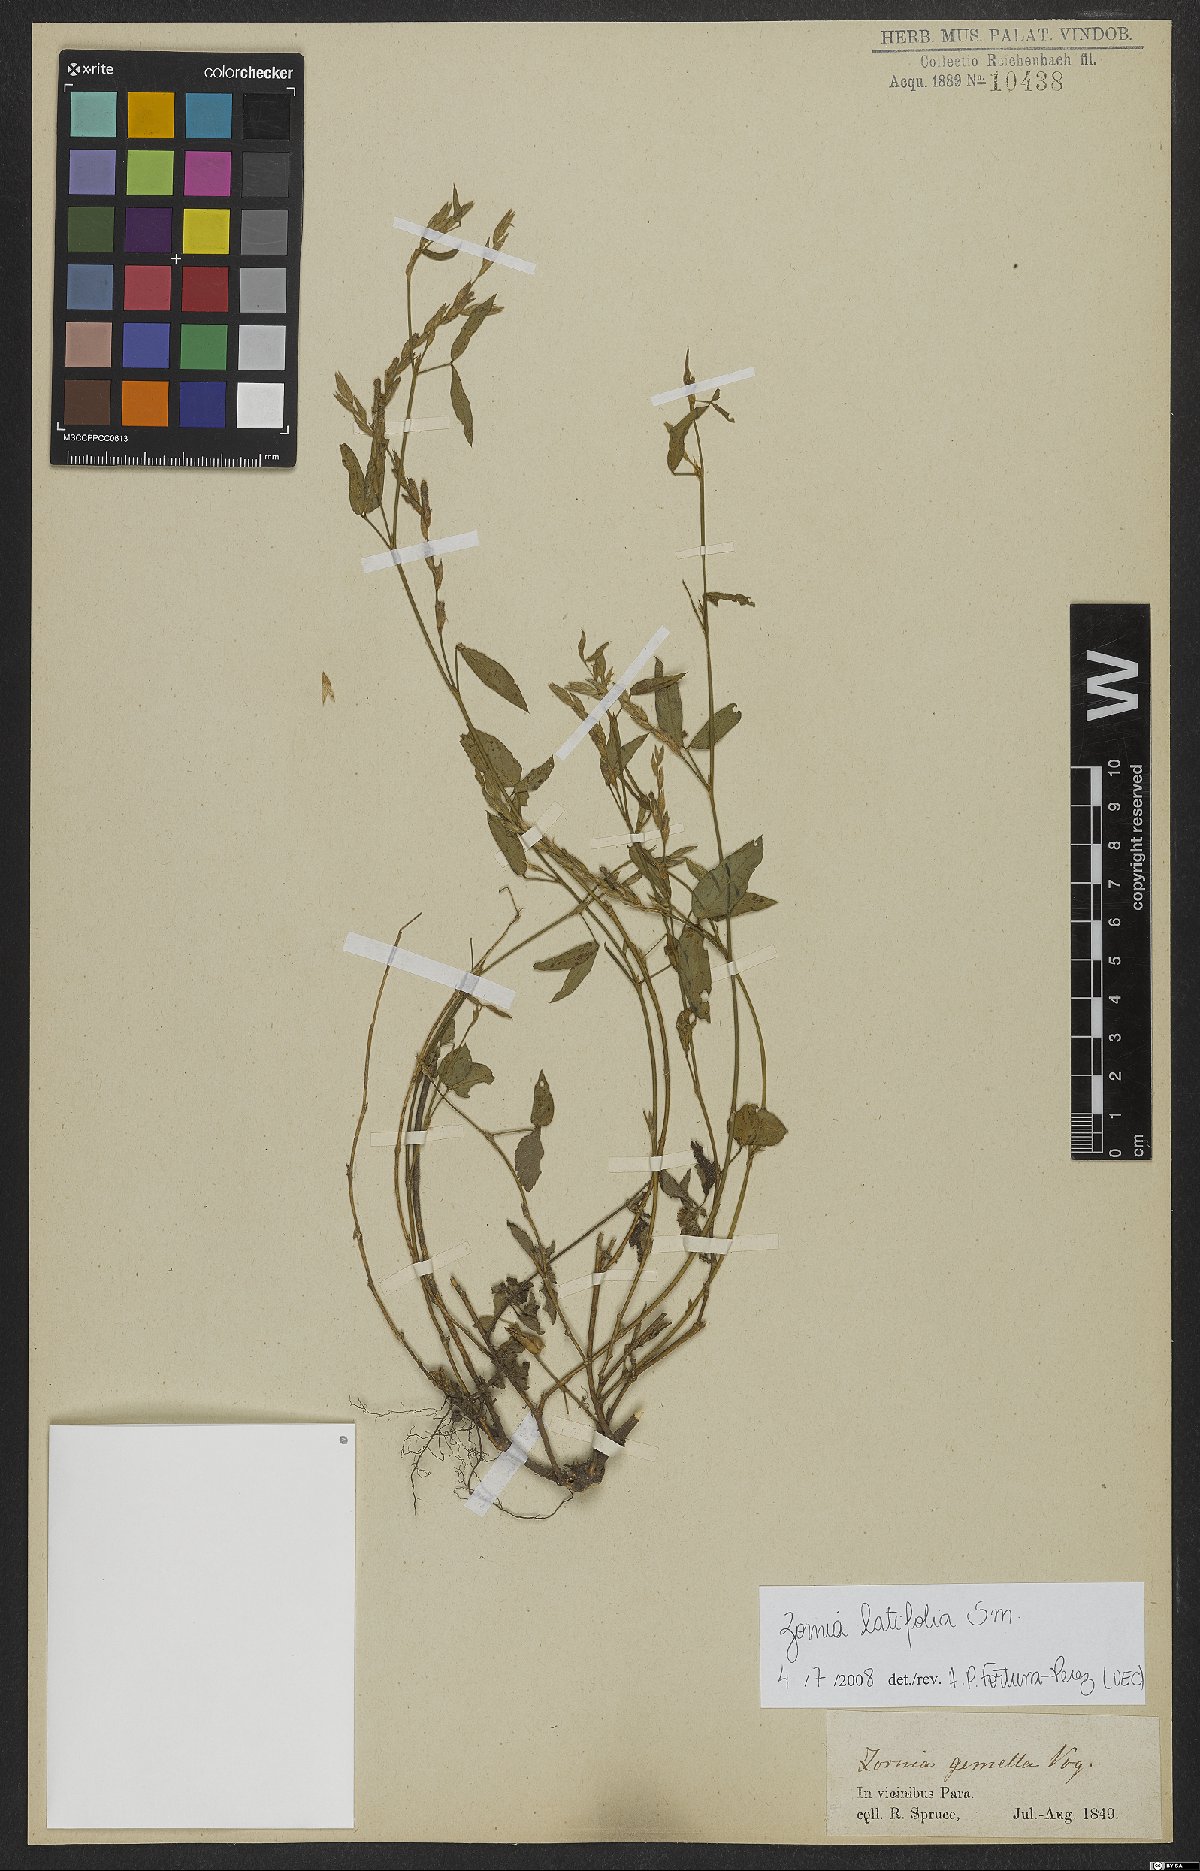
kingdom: Plantae
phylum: Tracheophyta
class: Magnoliopsida
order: Fabales
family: Fabaceae
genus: Zornia
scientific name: Zornia sericea
